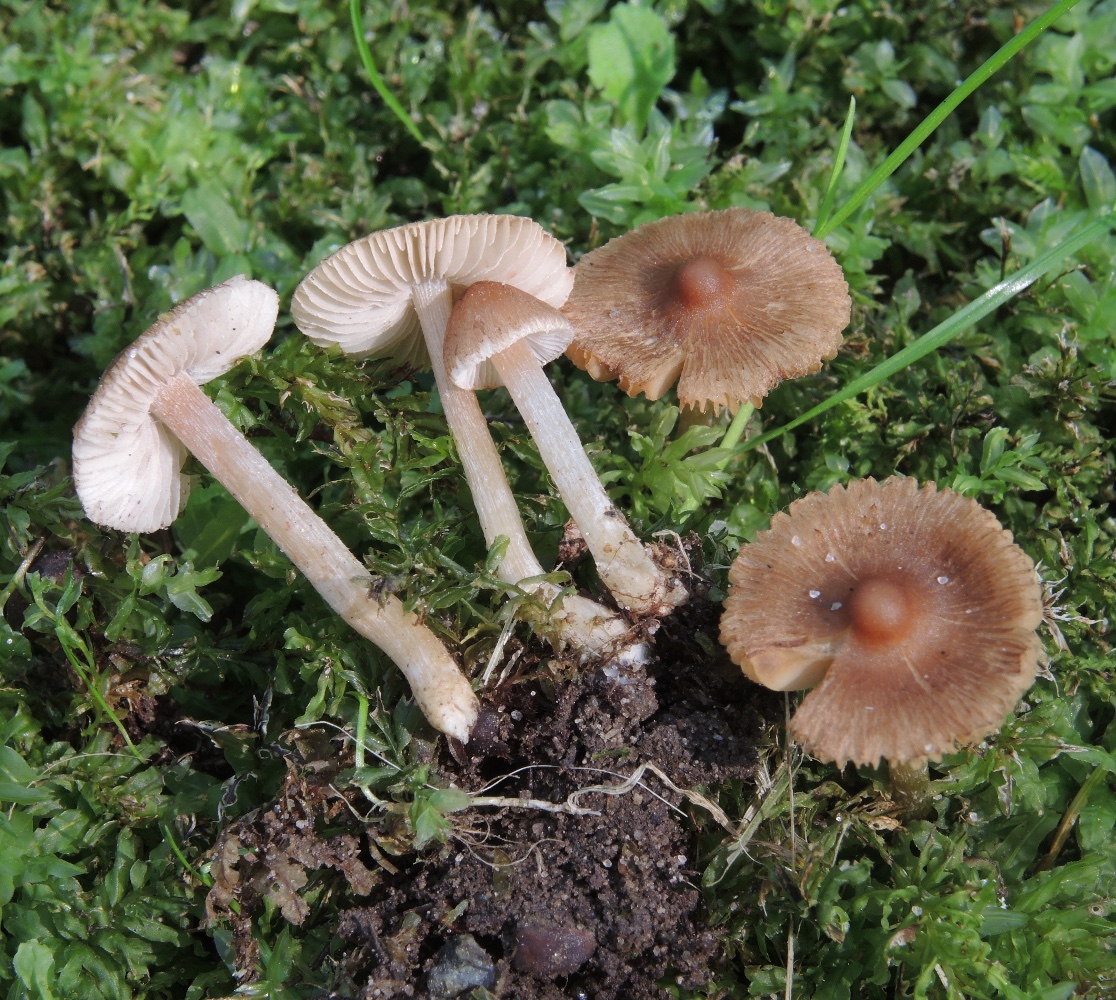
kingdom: Fungi
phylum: Basidiomycota
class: Agaricomycetes
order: Agaricales
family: Inocybaceae
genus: Inocybe
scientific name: Inocybe glabripes
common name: småsporet trævlhat
